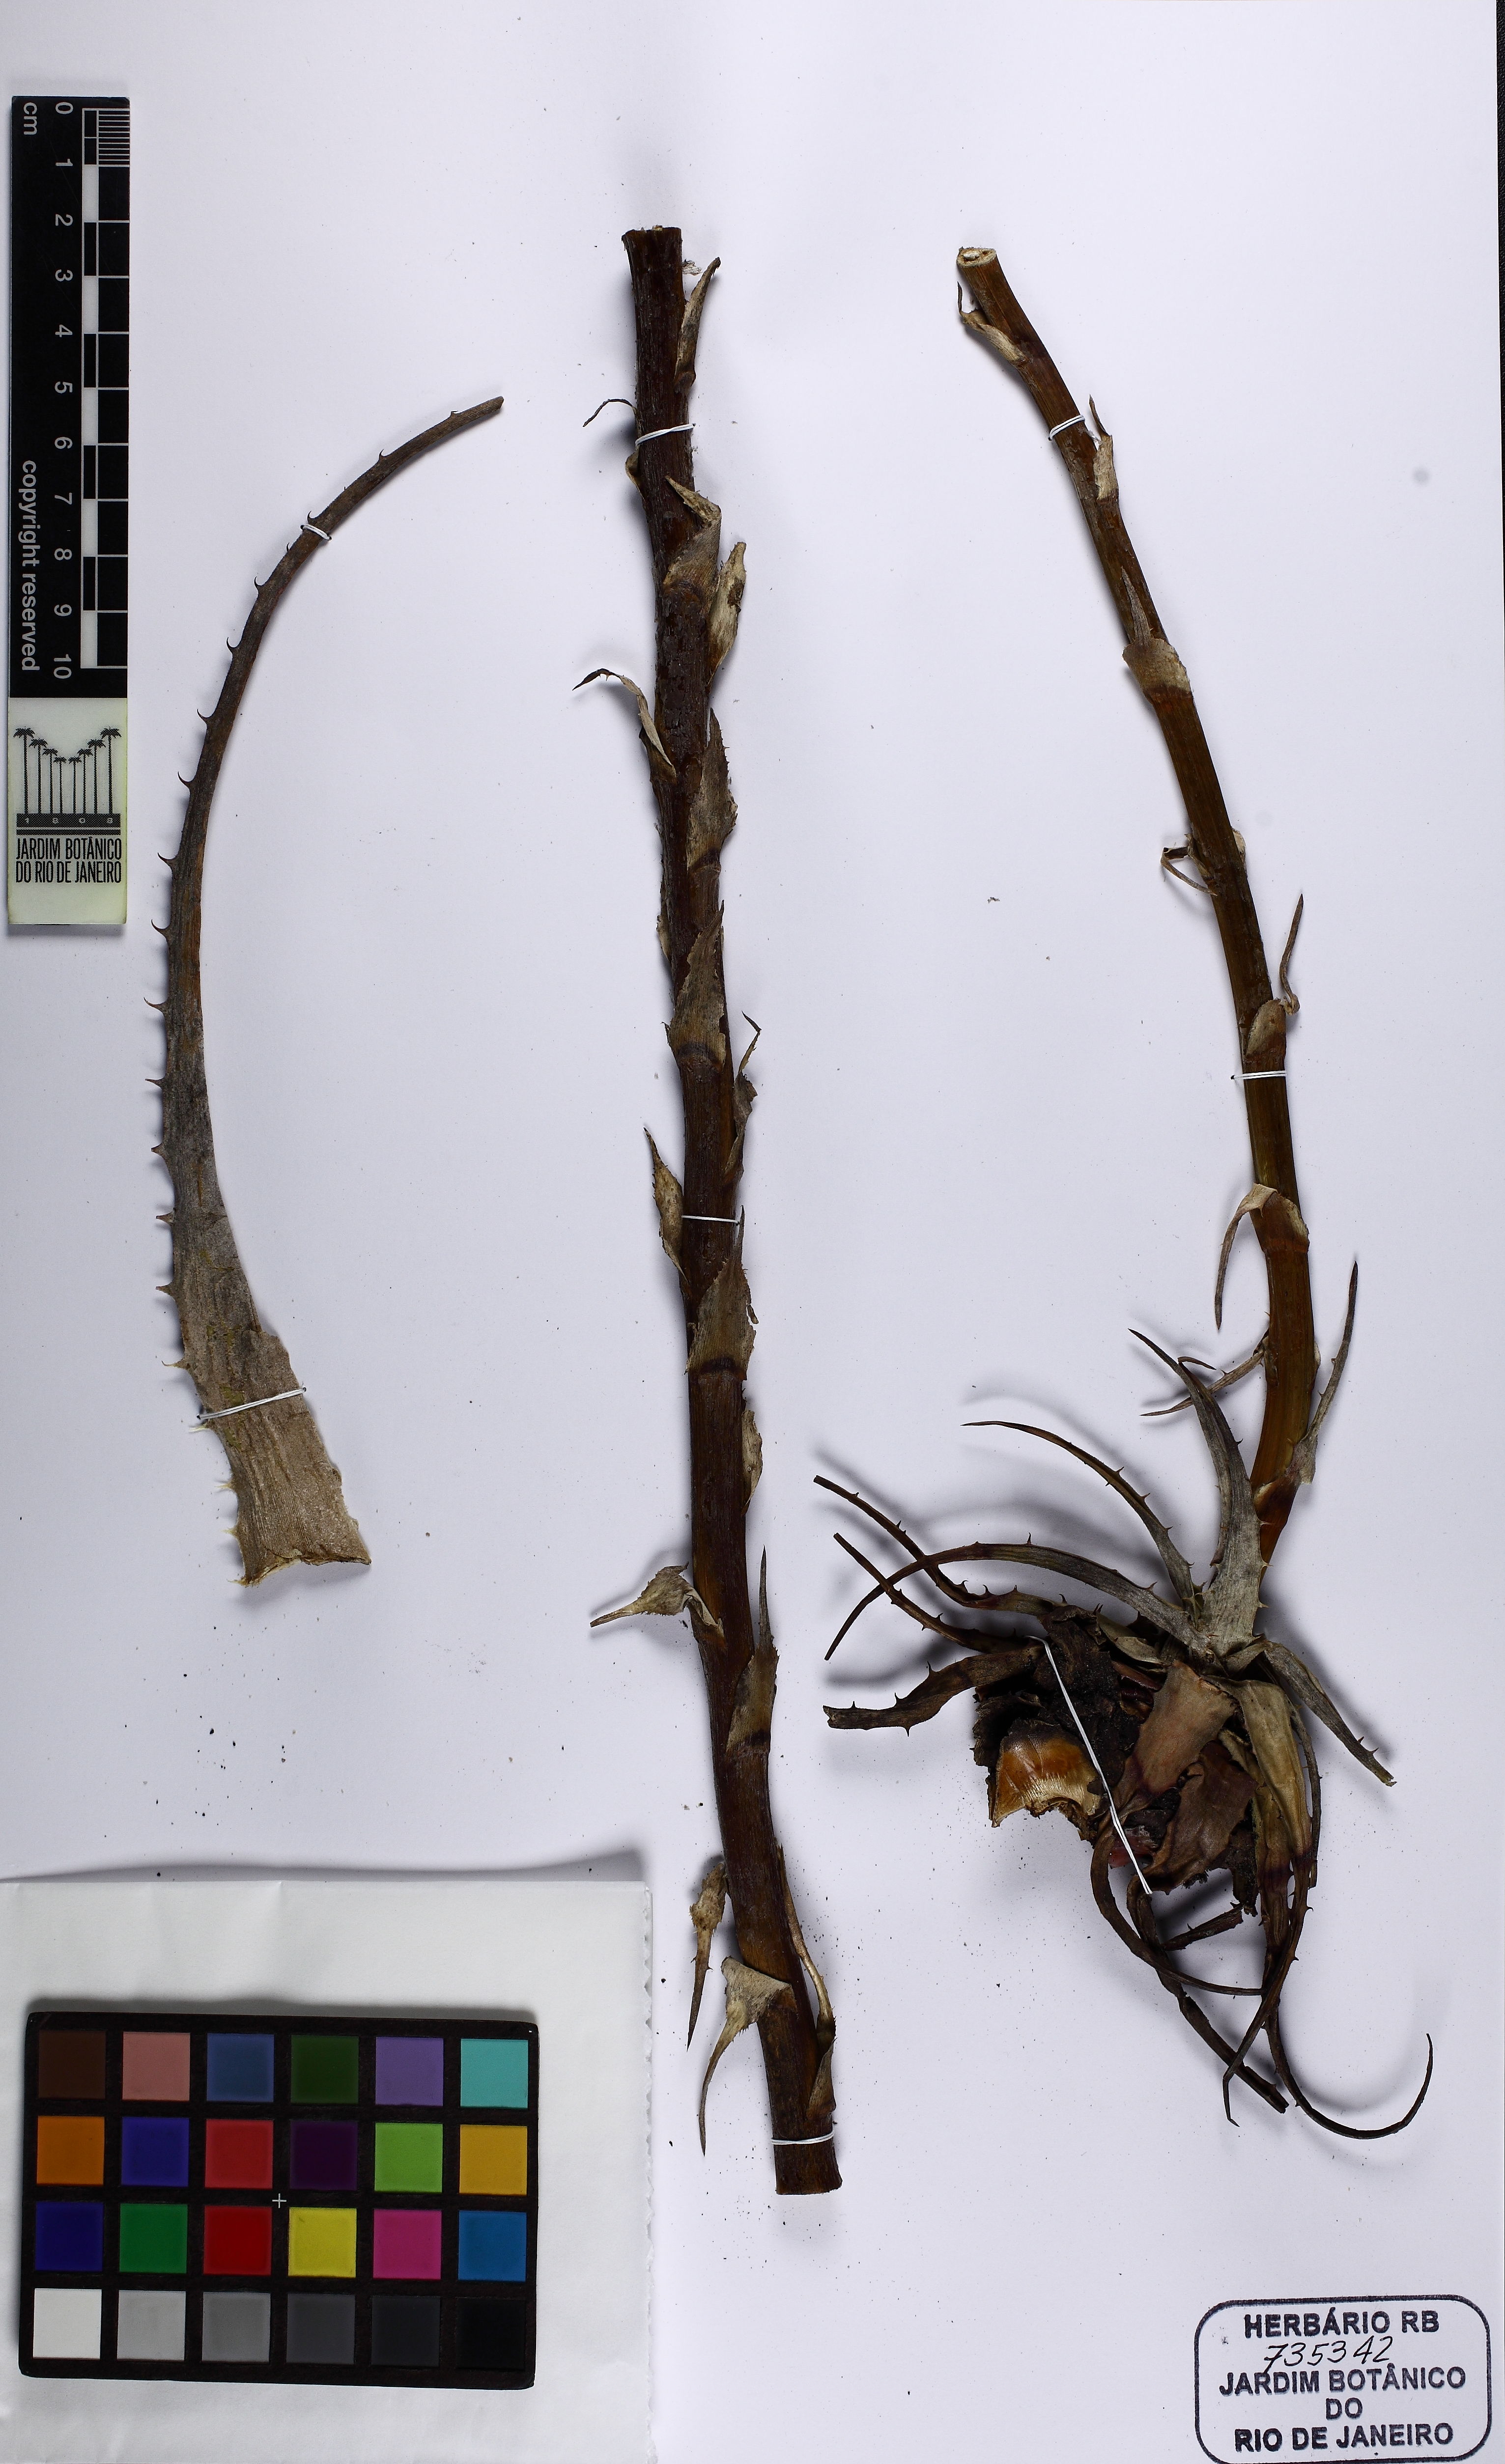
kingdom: Plantae
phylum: Tracheophyta
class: Liliopsida
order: Poales
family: Bromeliaceae
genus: Encholirium
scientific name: Encholirium magalhaesii
